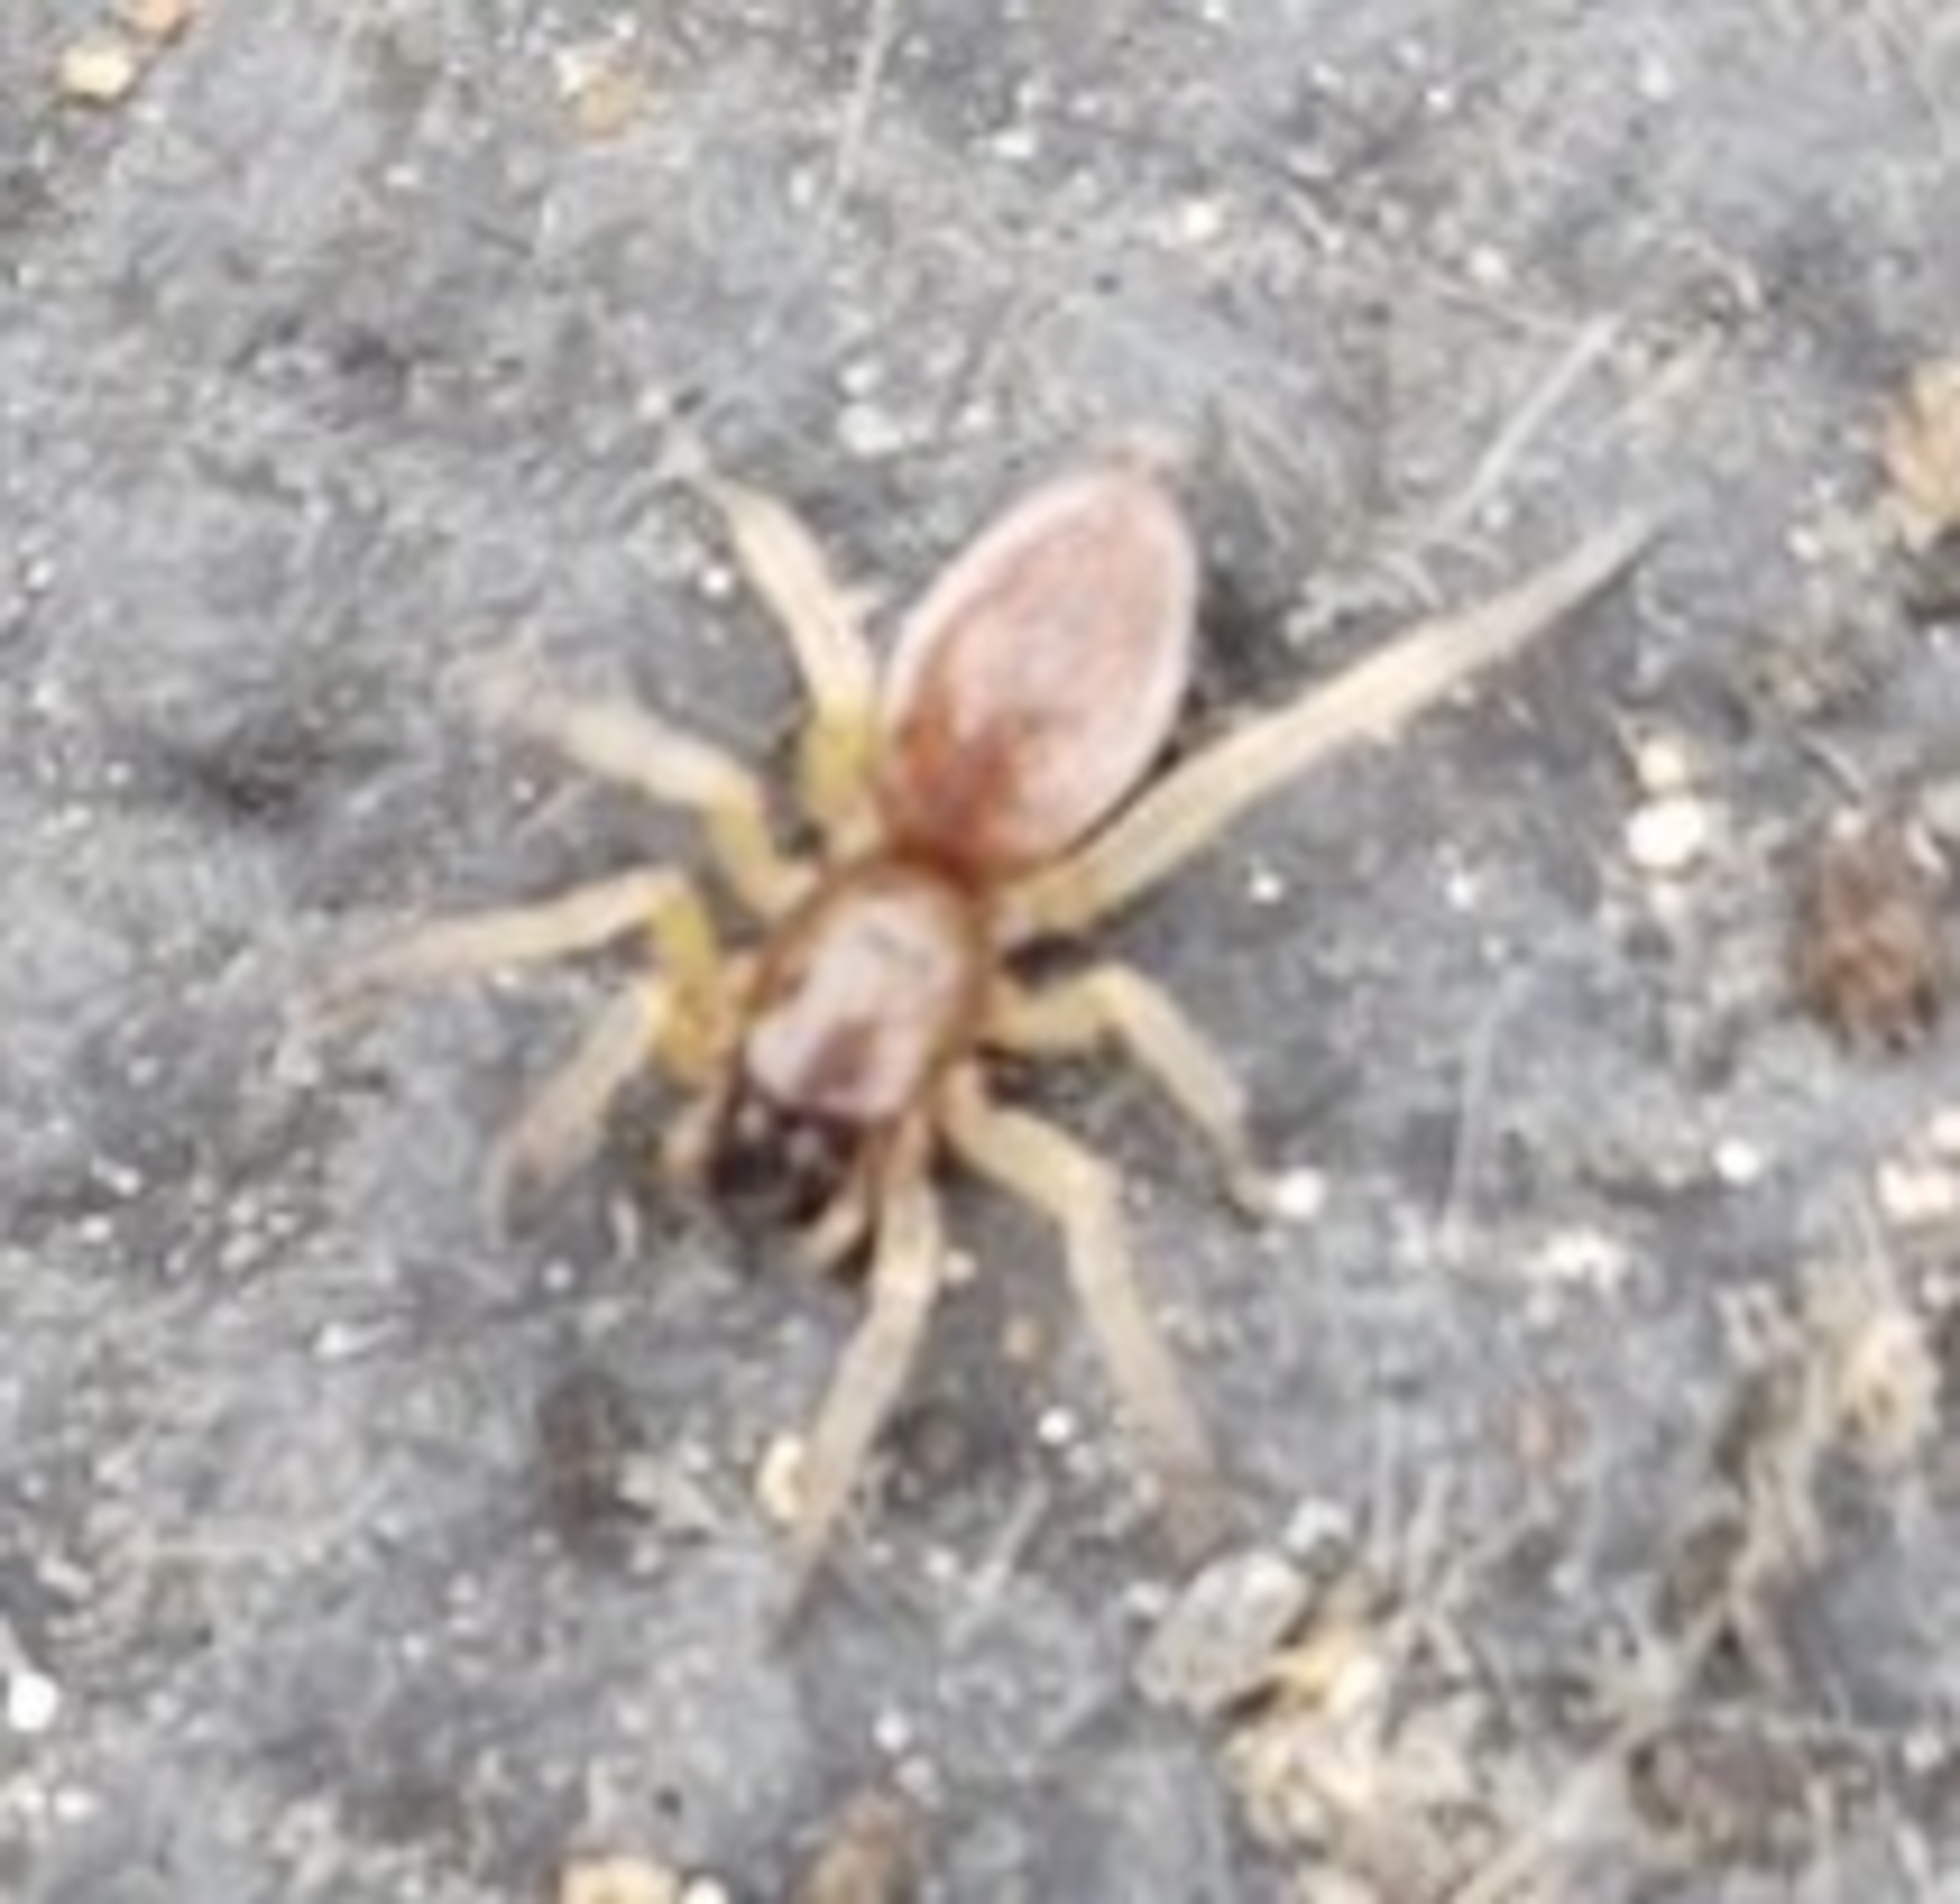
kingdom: Animalia
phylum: Arthropoda
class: Arachnida
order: Araneae
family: Clubionidae
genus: Clubiona
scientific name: Clubiona
